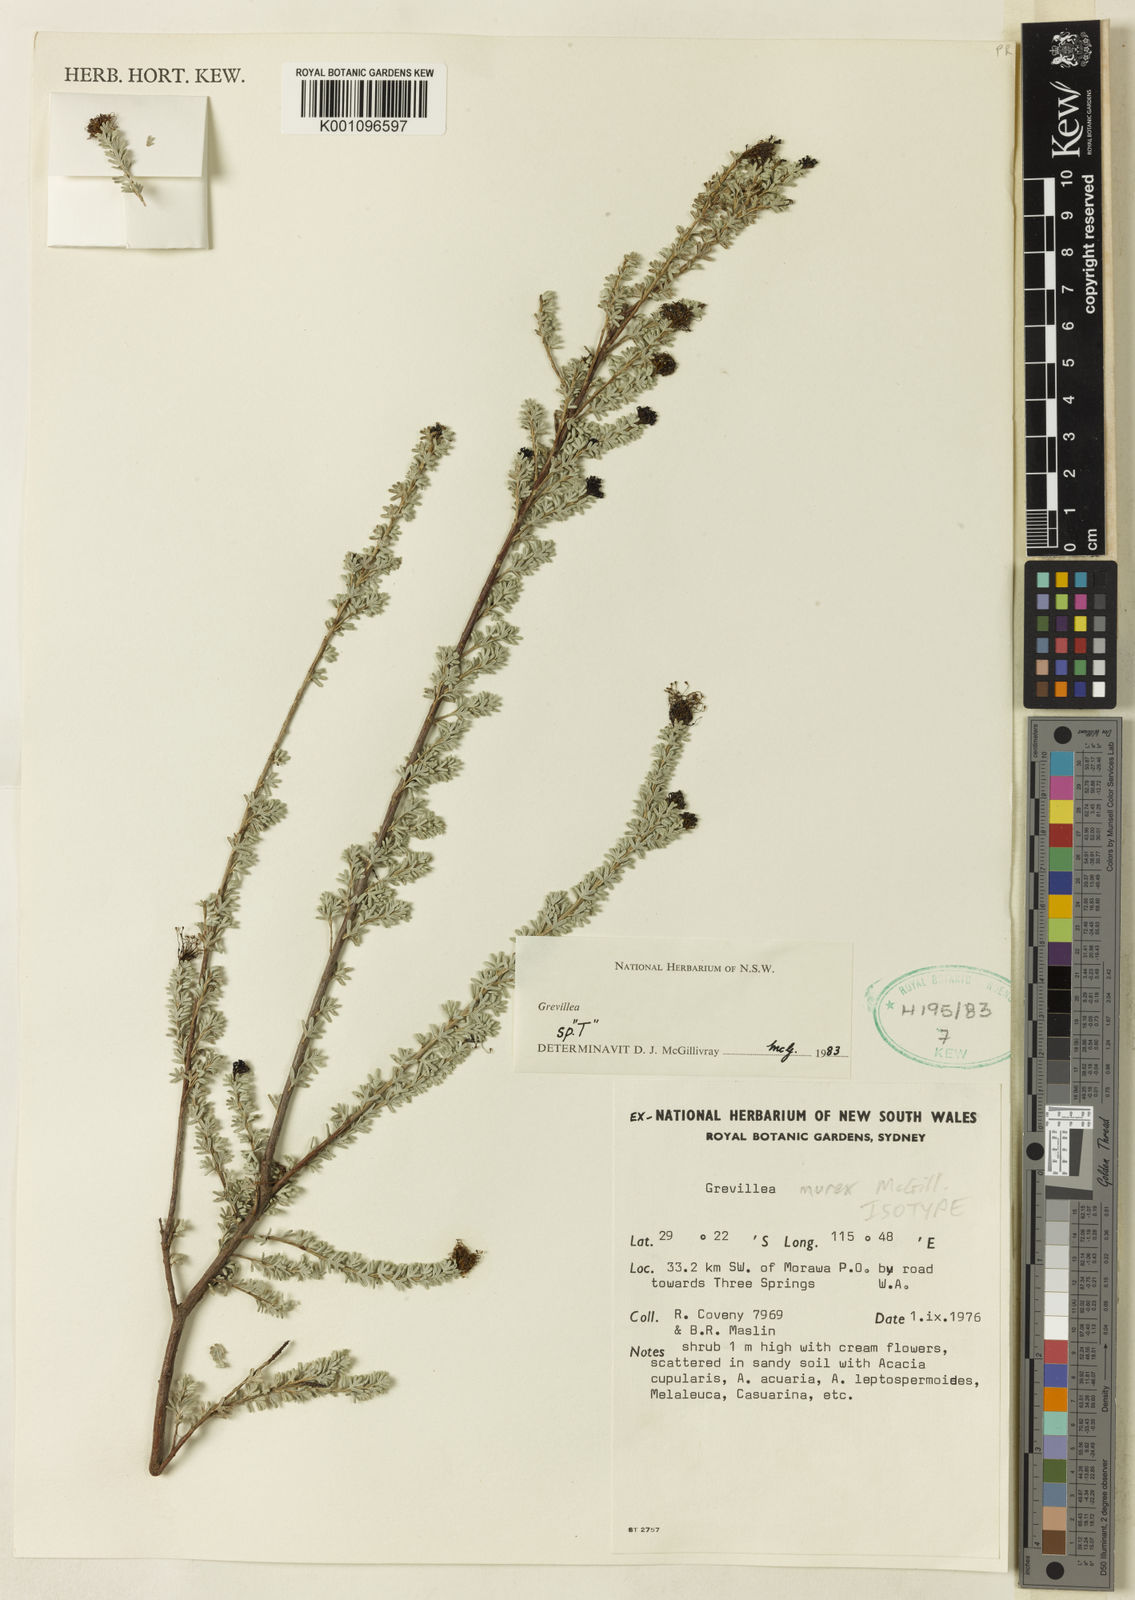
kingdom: Plantae
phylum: Tracheophyta
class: Magnoliopsida
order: Proteales
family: Proteaceae
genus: Grevillea
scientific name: Grevillea murex
